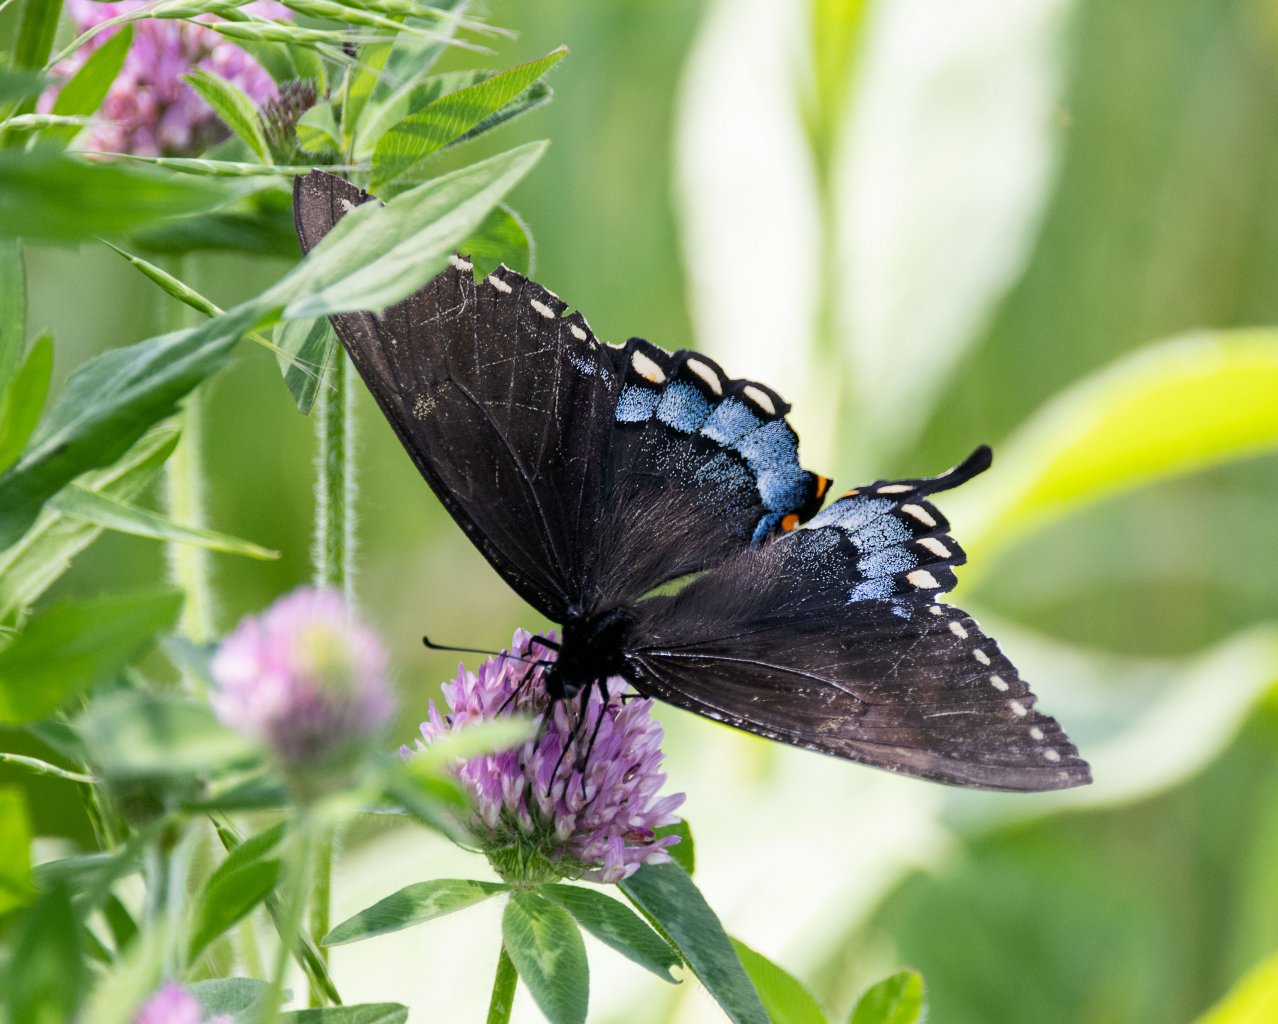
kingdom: Animalia
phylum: Arthropoda
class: Insecta
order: Lepidoptera
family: Papilionidae
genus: Pterourus
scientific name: Pterourus glaucus
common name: Eastern Tiger Swallowtail
